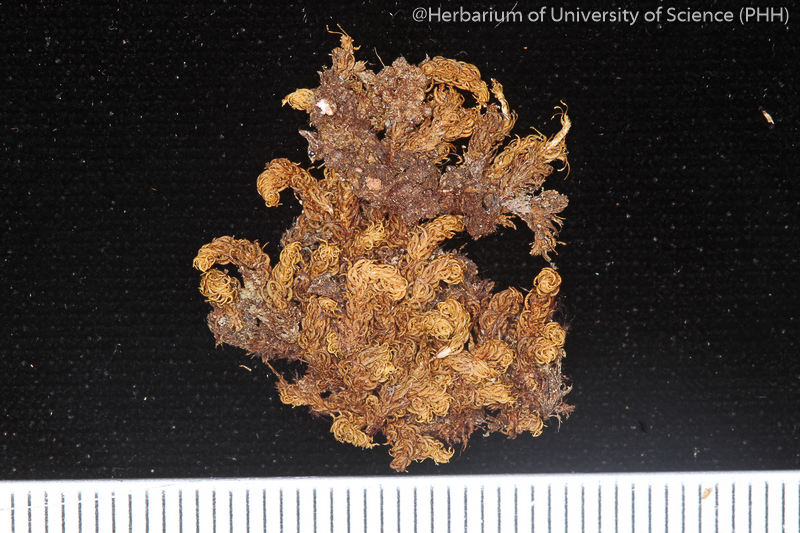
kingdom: Plantae
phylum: Bryophyta
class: Bryopsida
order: Dicranales
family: Calymperaceae
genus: Mitthyridium
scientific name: Mitthyridium flavum
